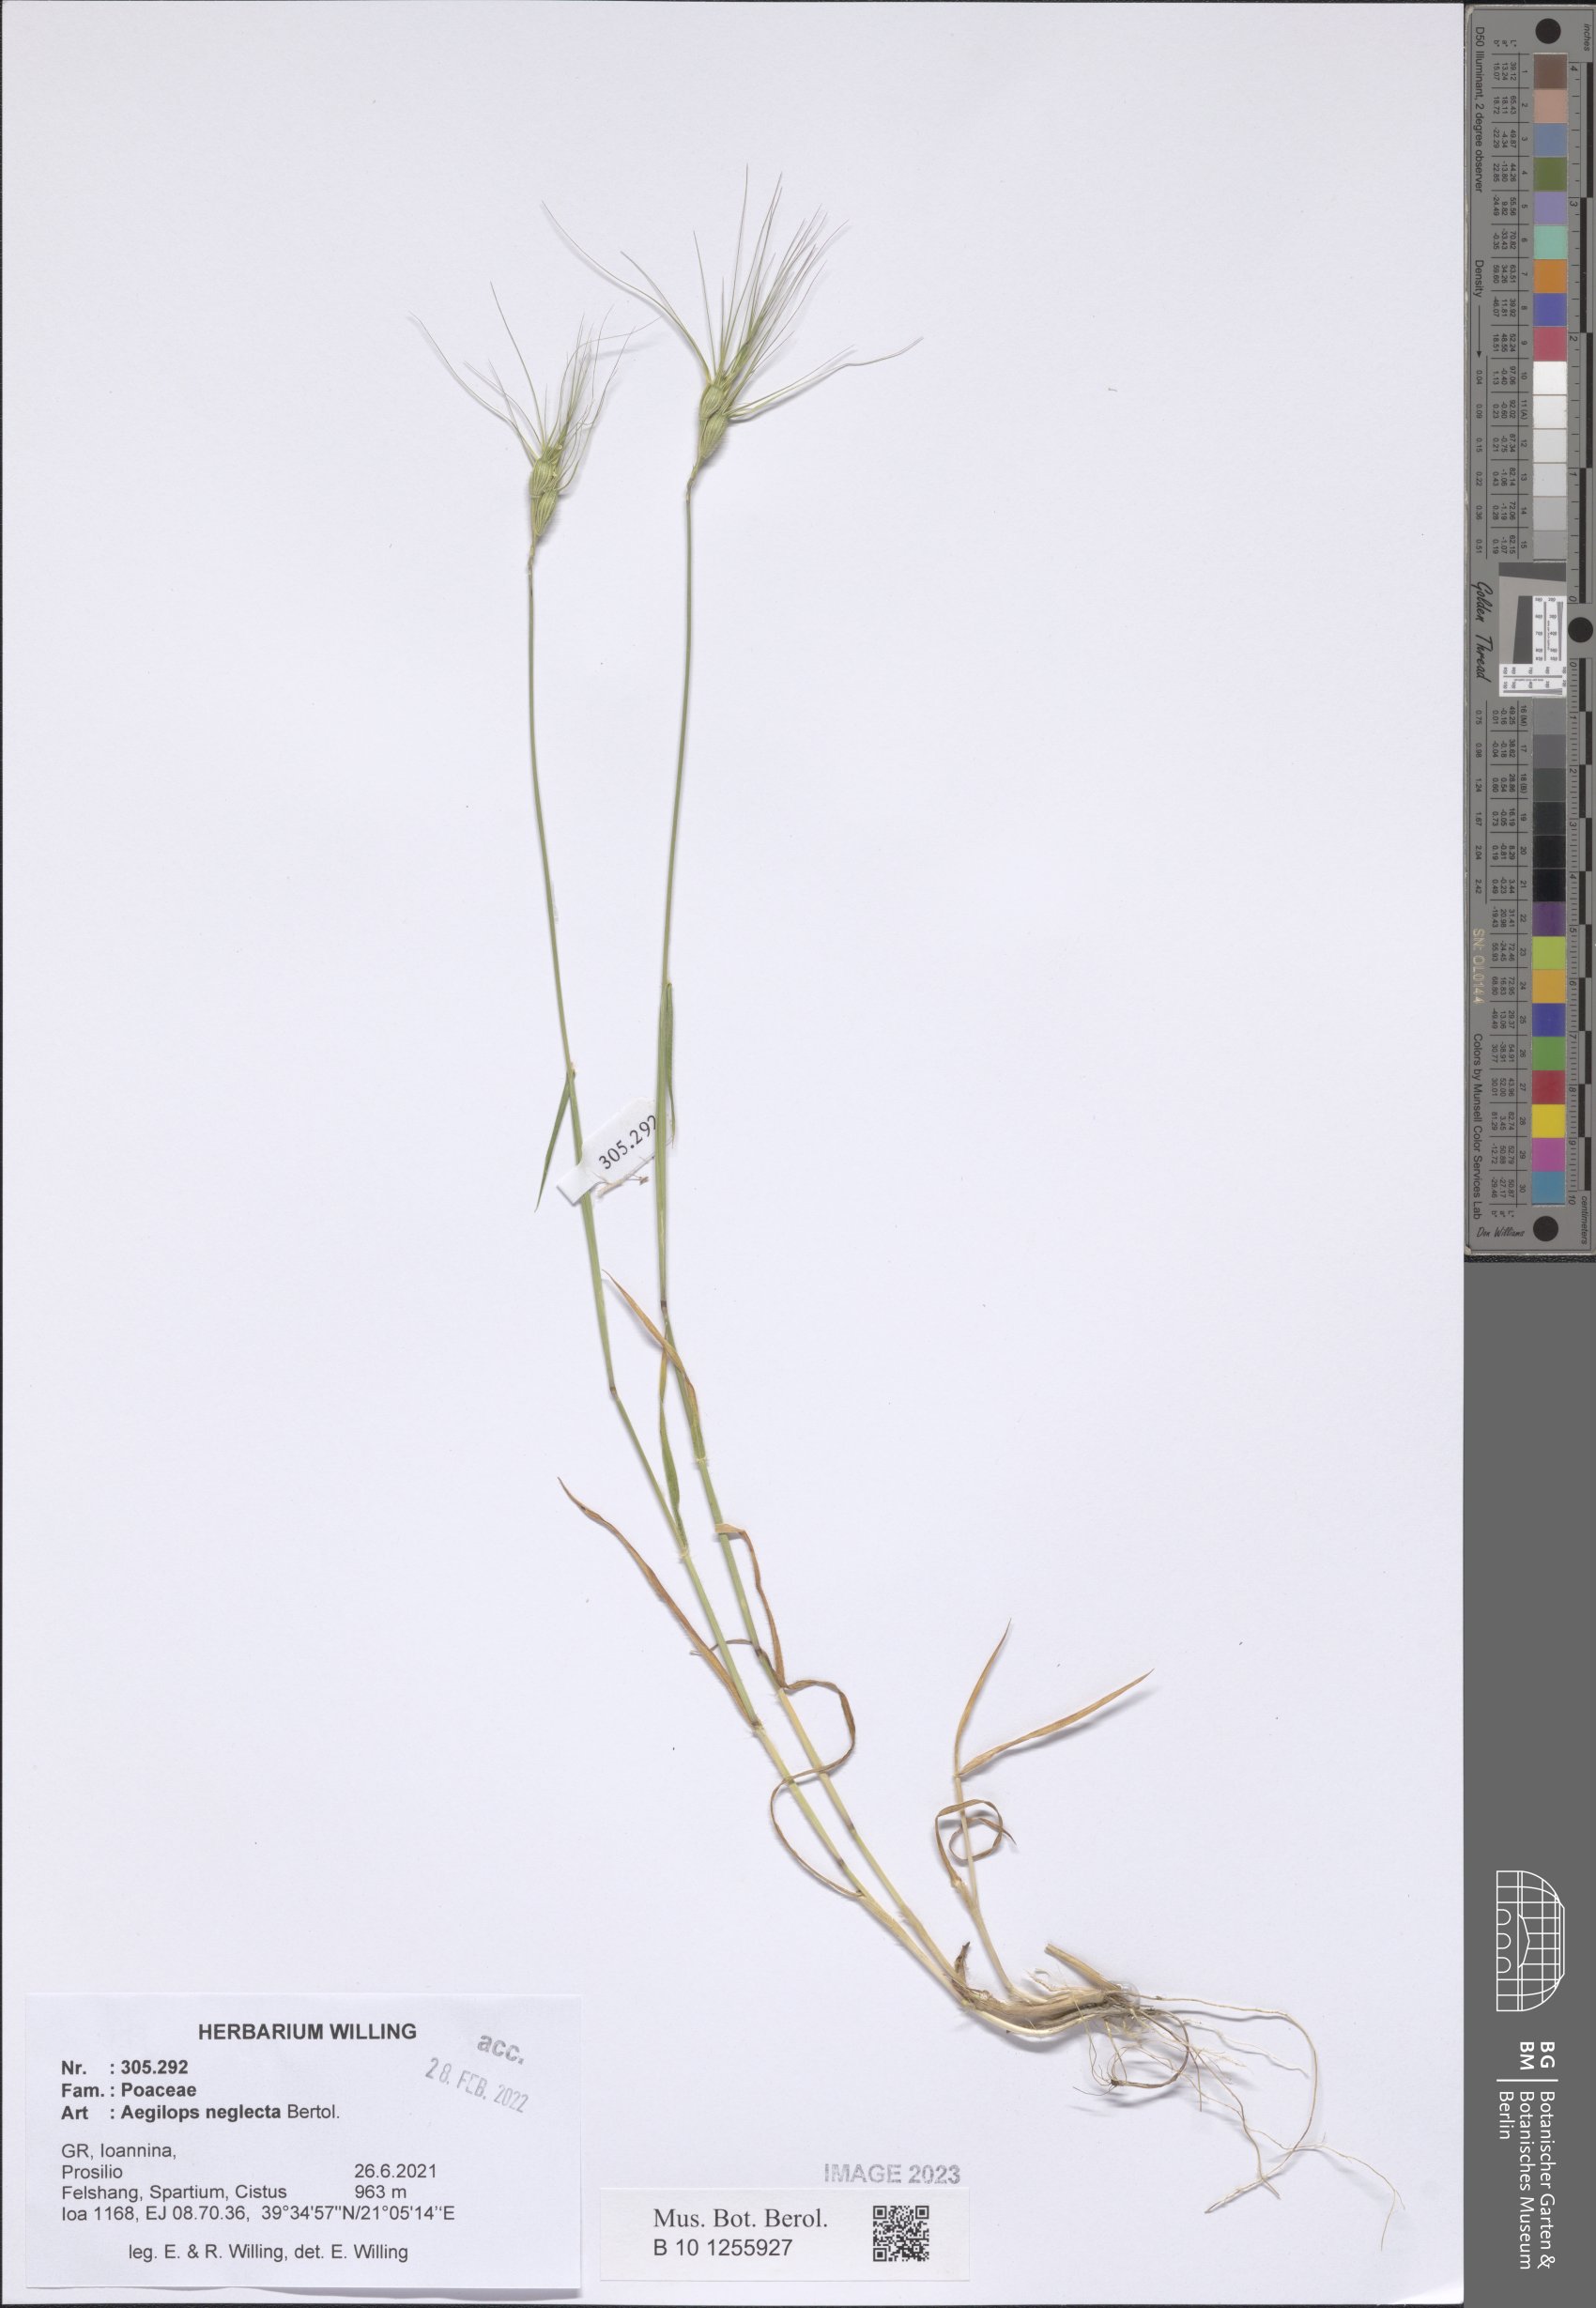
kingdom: Plantae
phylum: Tracheophyta
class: Liliopsida
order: Poales
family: Poaceae
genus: Aegilops
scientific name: Aegilops neglecta
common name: Three-awn goat grass
